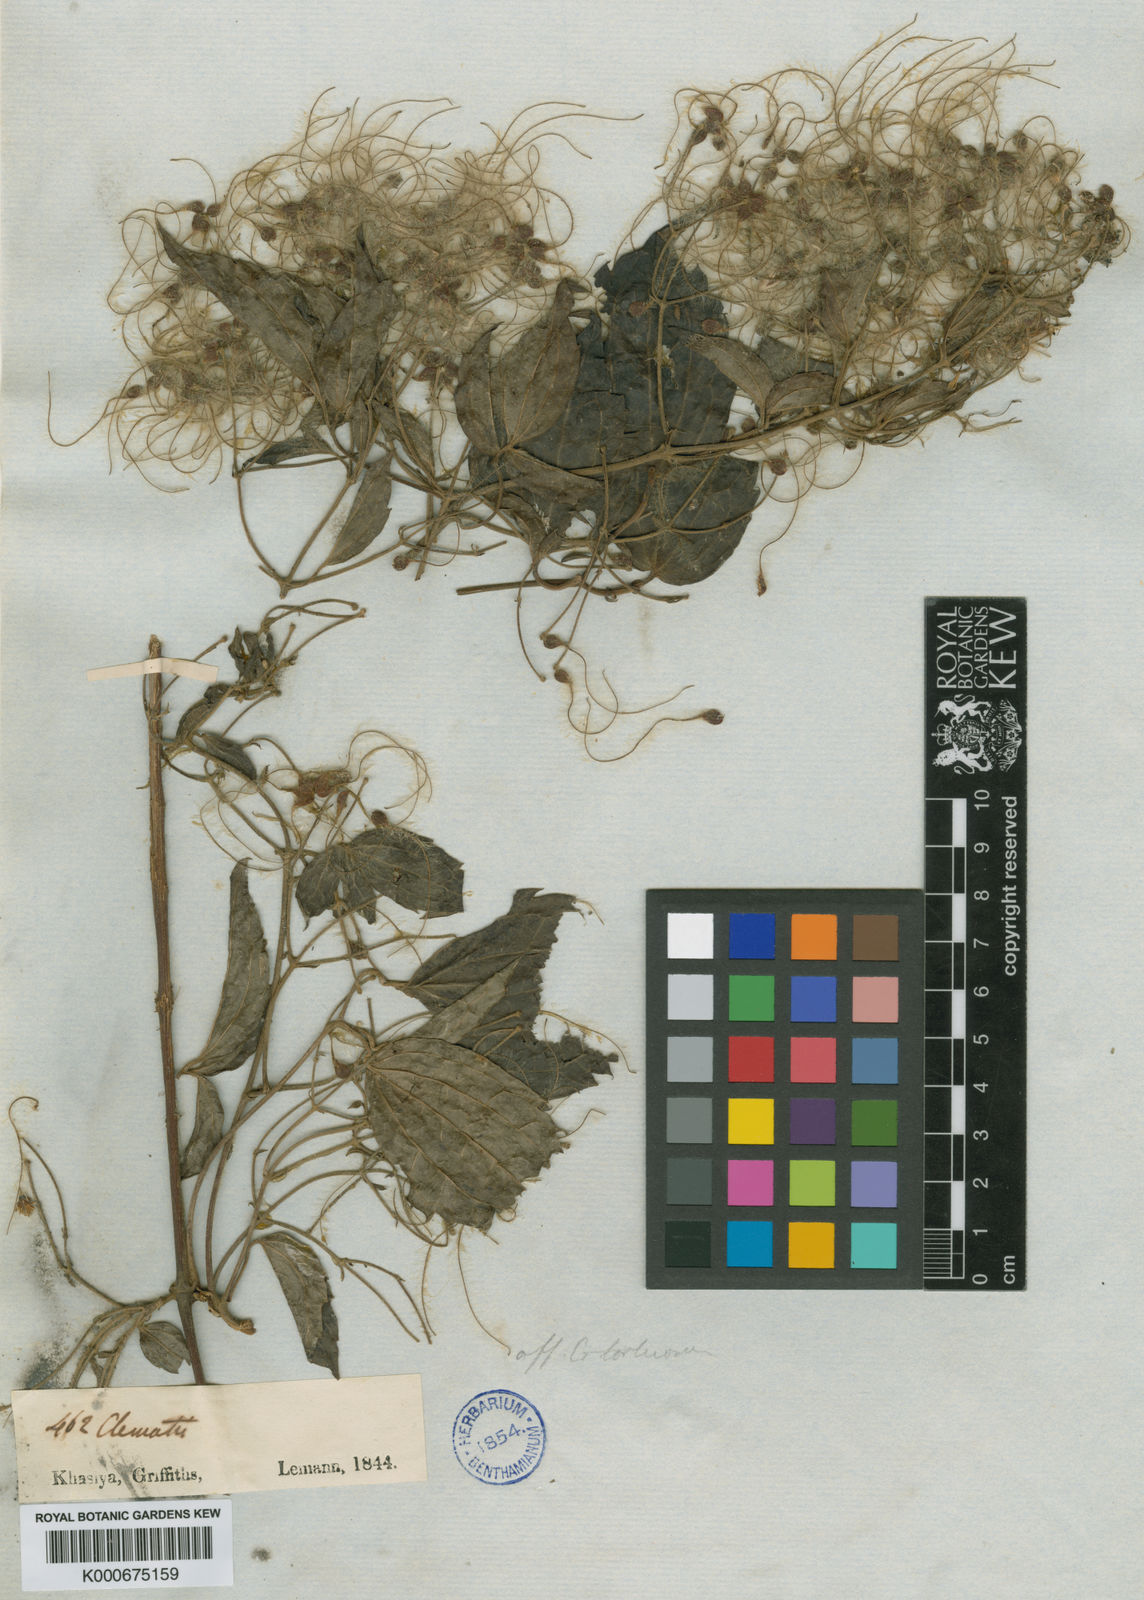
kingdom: Plantae
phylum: Tracheophyta
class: Magnoliopsida
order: Ranunculales
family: Ranunculaceae
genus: Clematis
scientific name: Clematis apiculata
